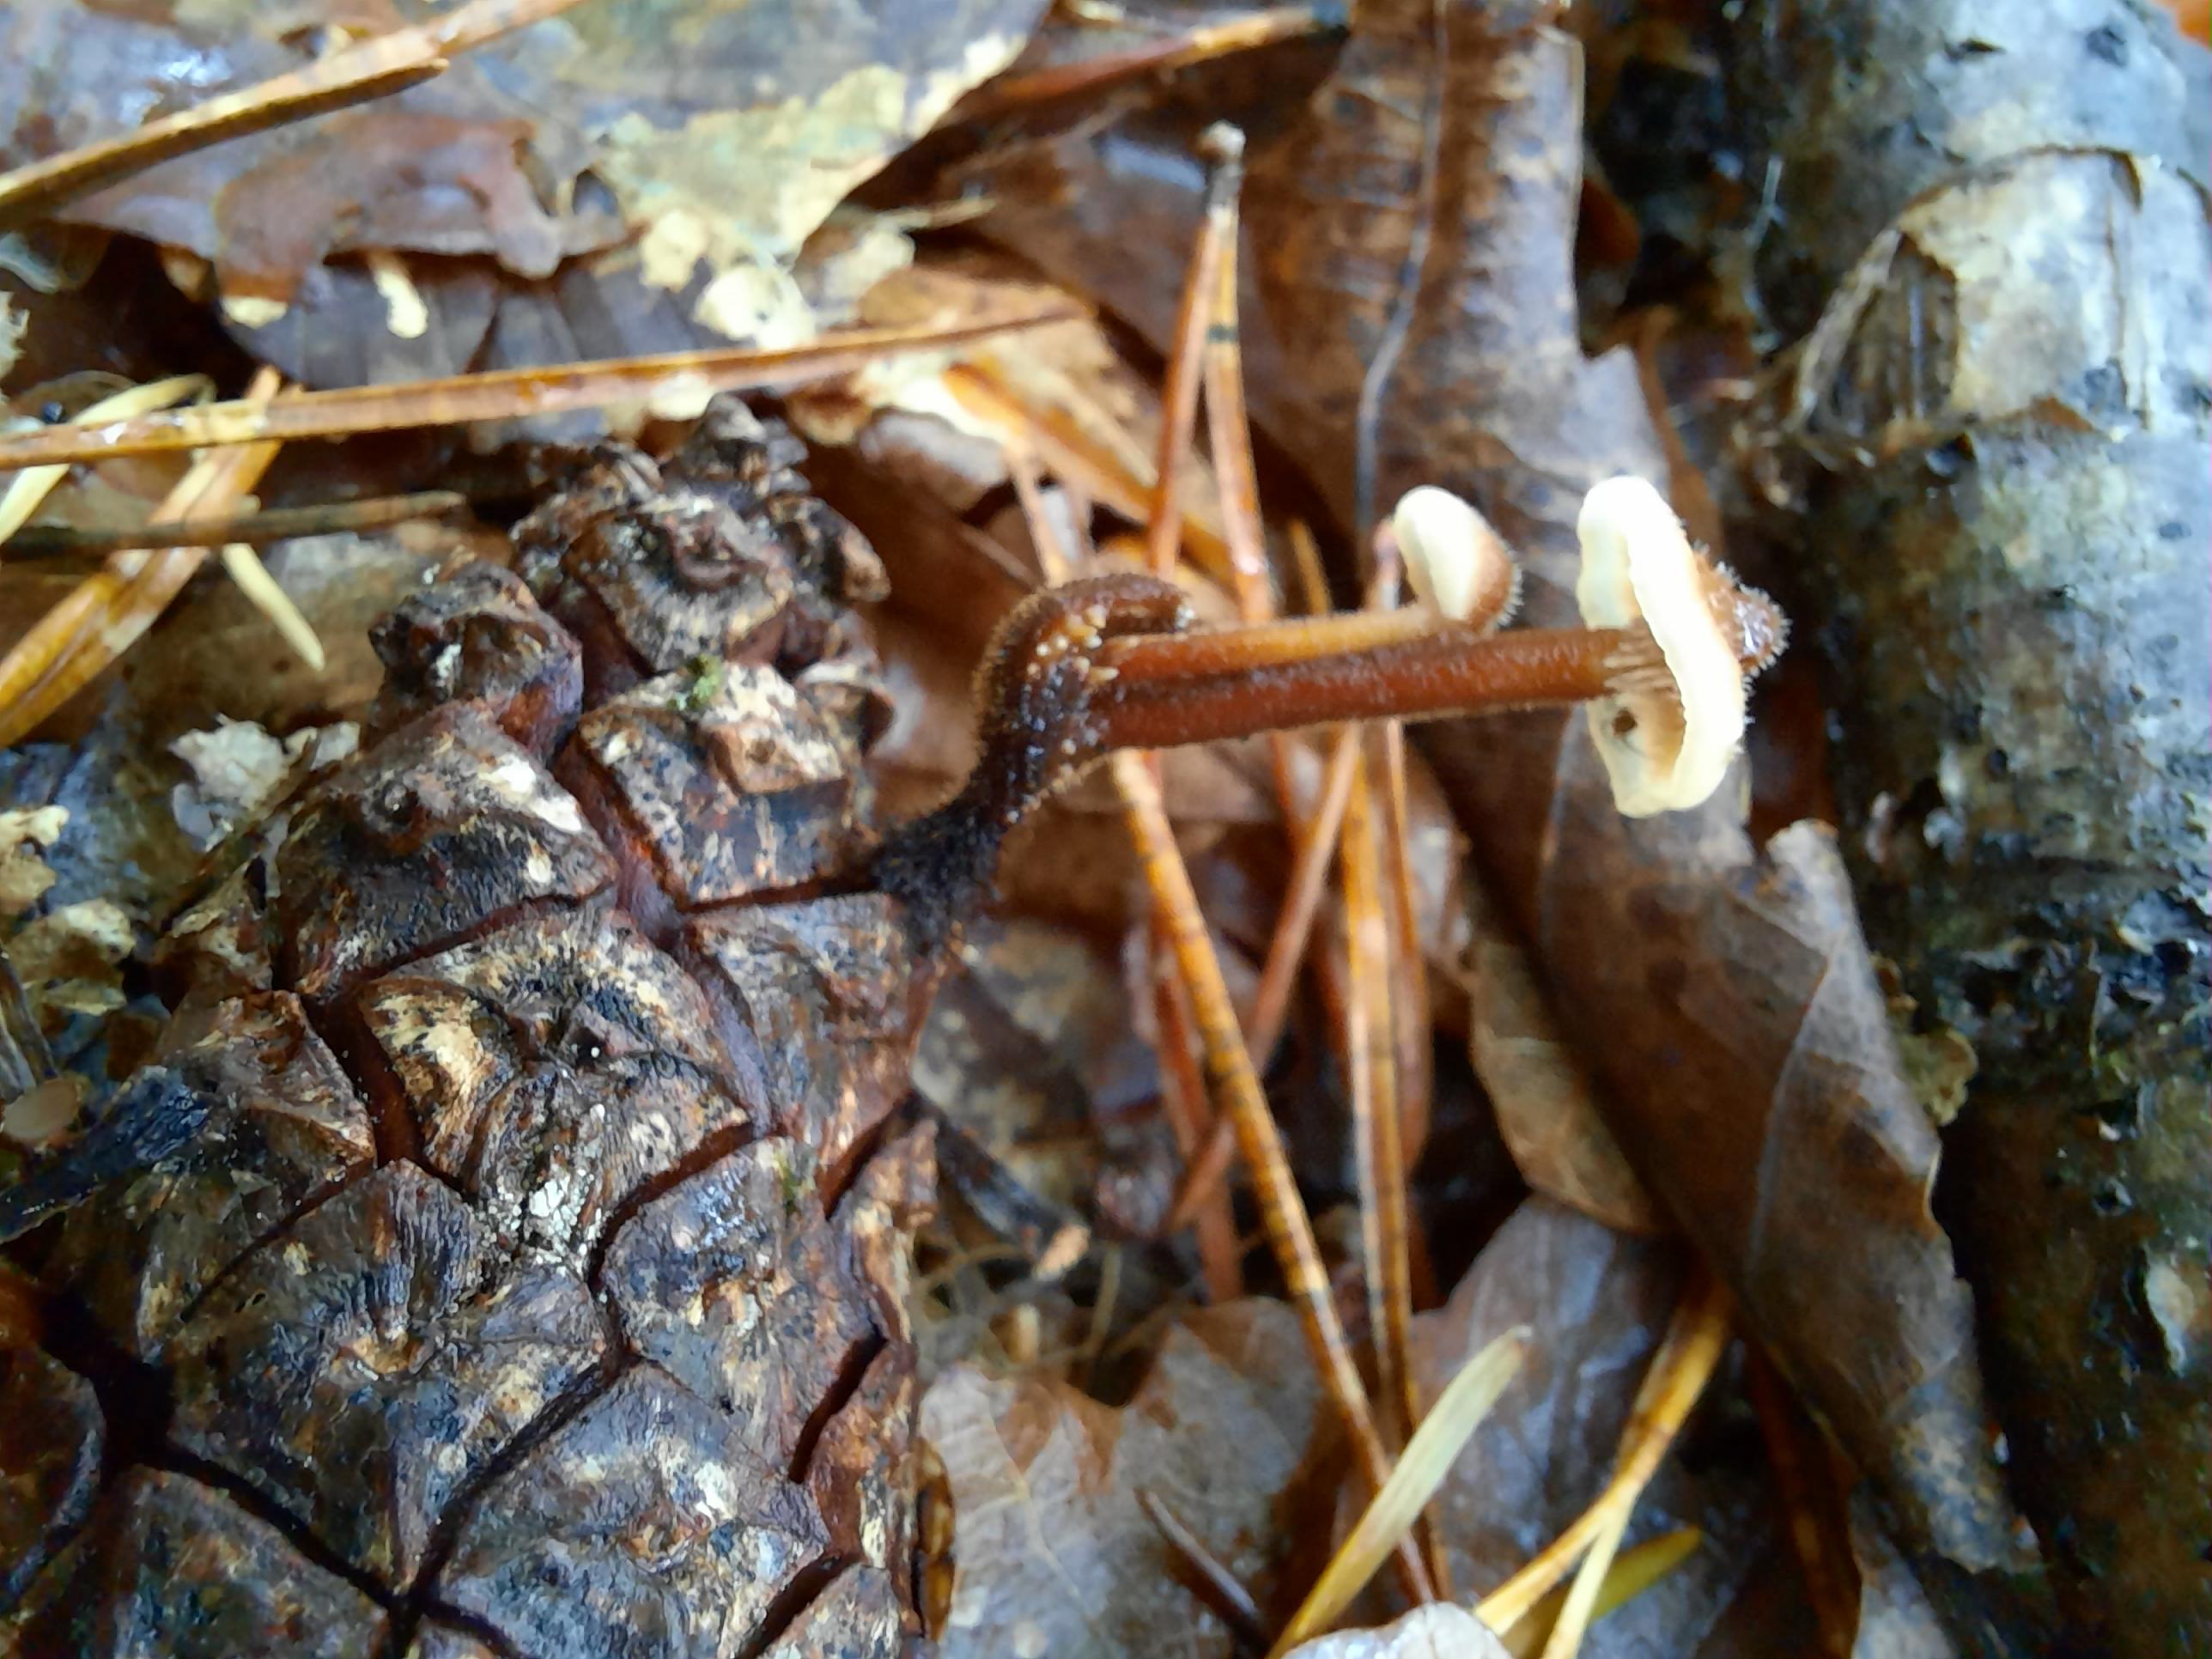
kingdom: Fungi
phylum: Basidiomycota
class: Agaricomycetes
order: Russulales
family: Auriscalpiaceae
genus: Auriscalpium
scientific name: Auriscalpium vulgare
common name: koglepigsvamp
